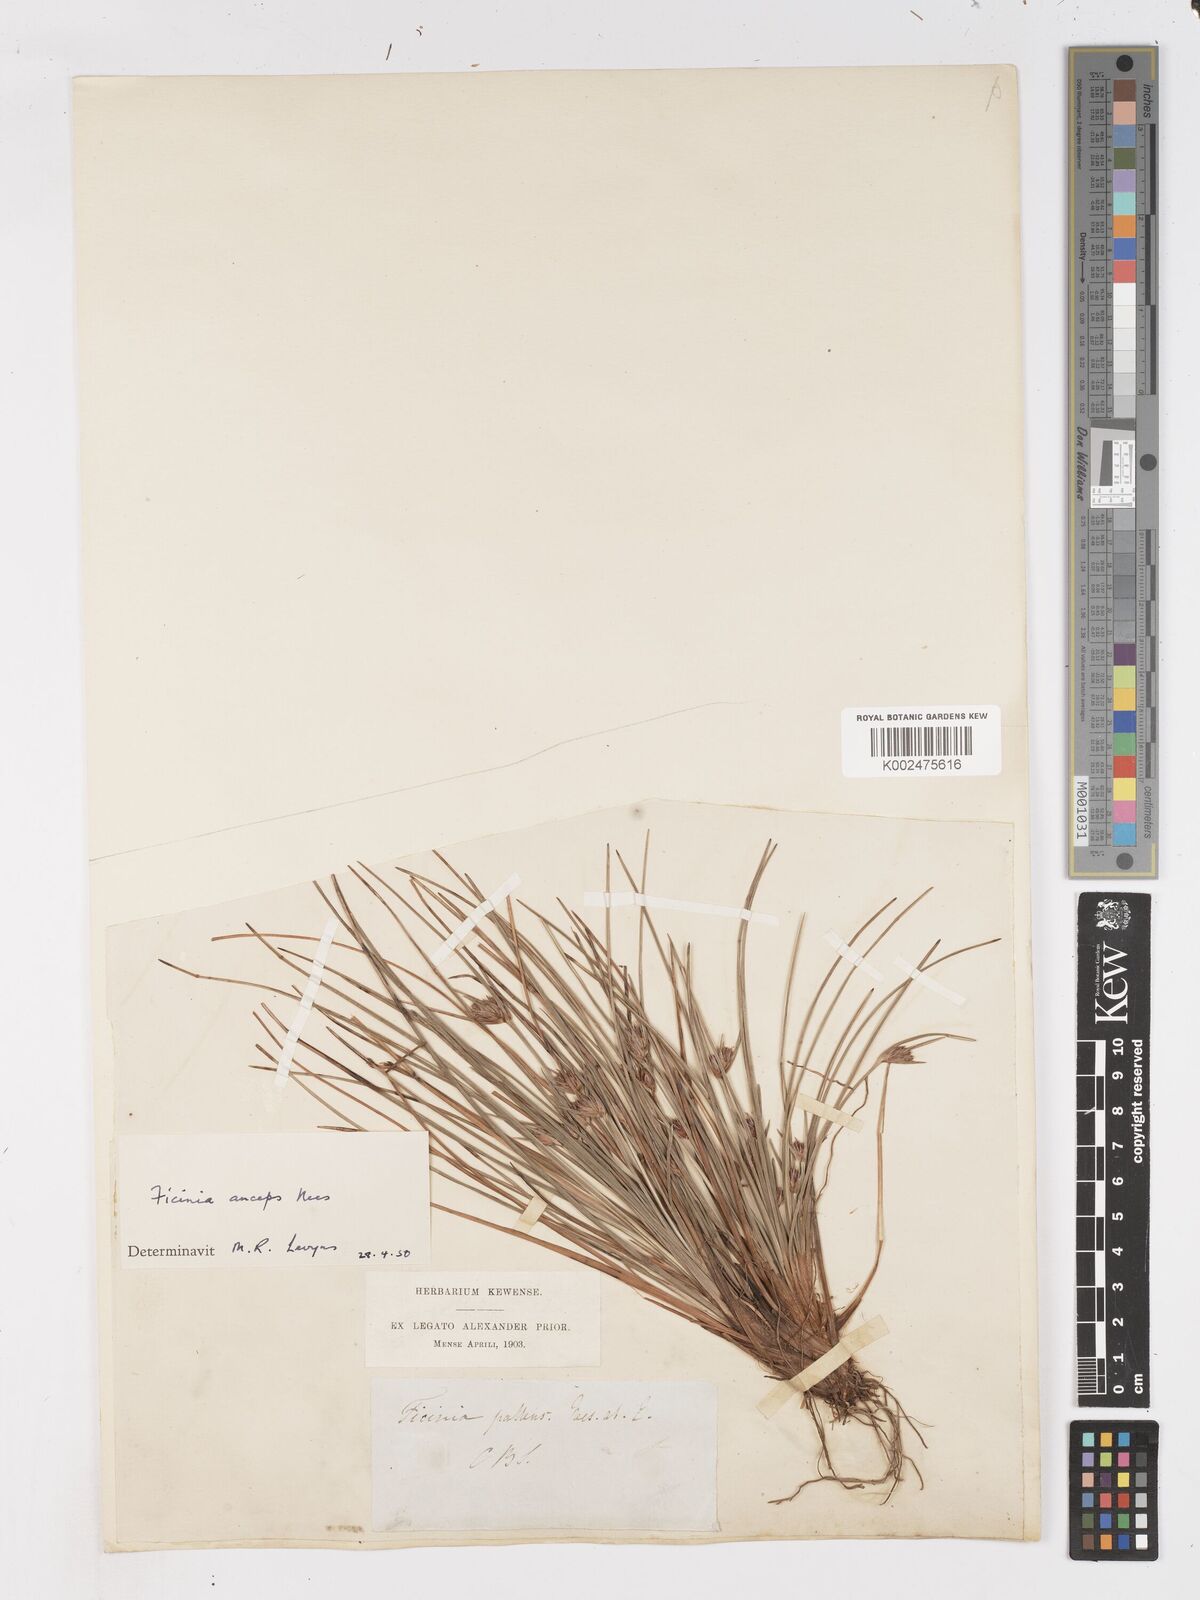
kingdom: Plantae
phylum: Tracheophyta
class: Liliopsida
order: Poales
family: Cyperaceae
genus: Ficinia
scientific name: Ficinia anceps
